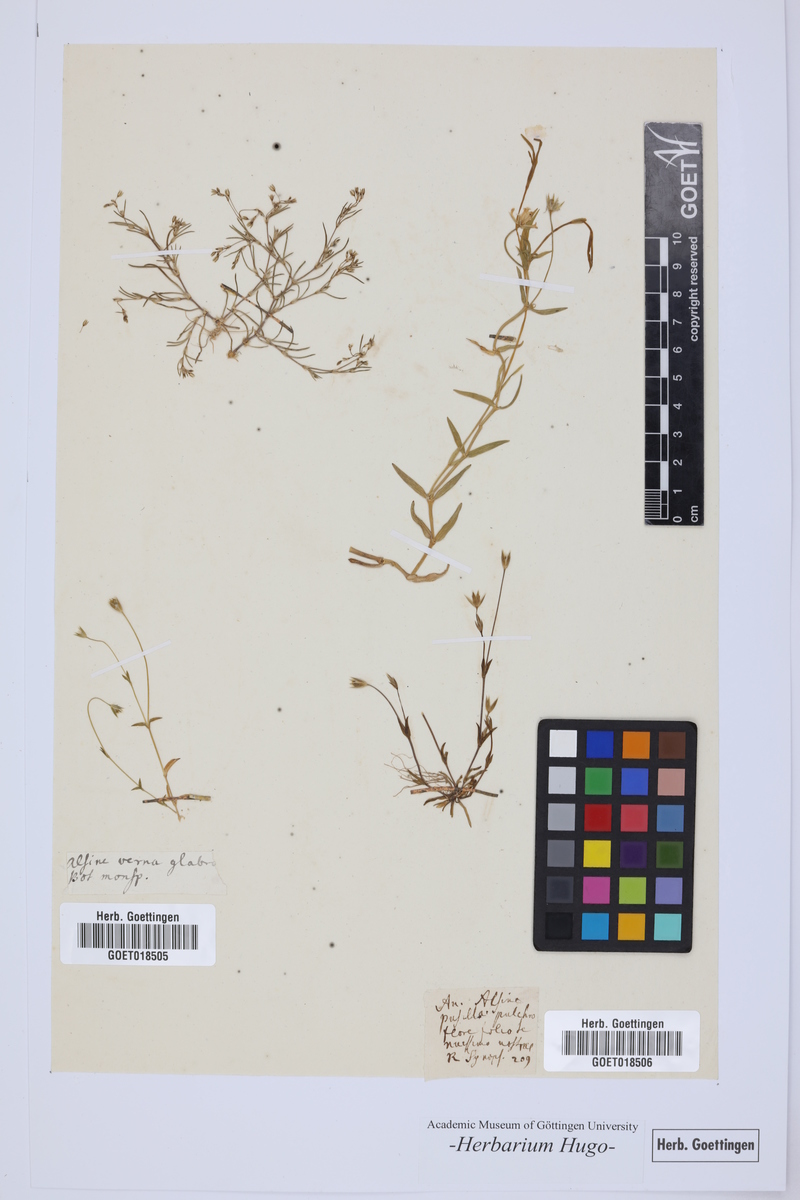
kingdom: Plantae
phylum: Tracheophyta
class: Magnoliopsida
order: Caryophyllales
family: Caryophyllaceae
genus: Alsine
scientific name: Alsine
